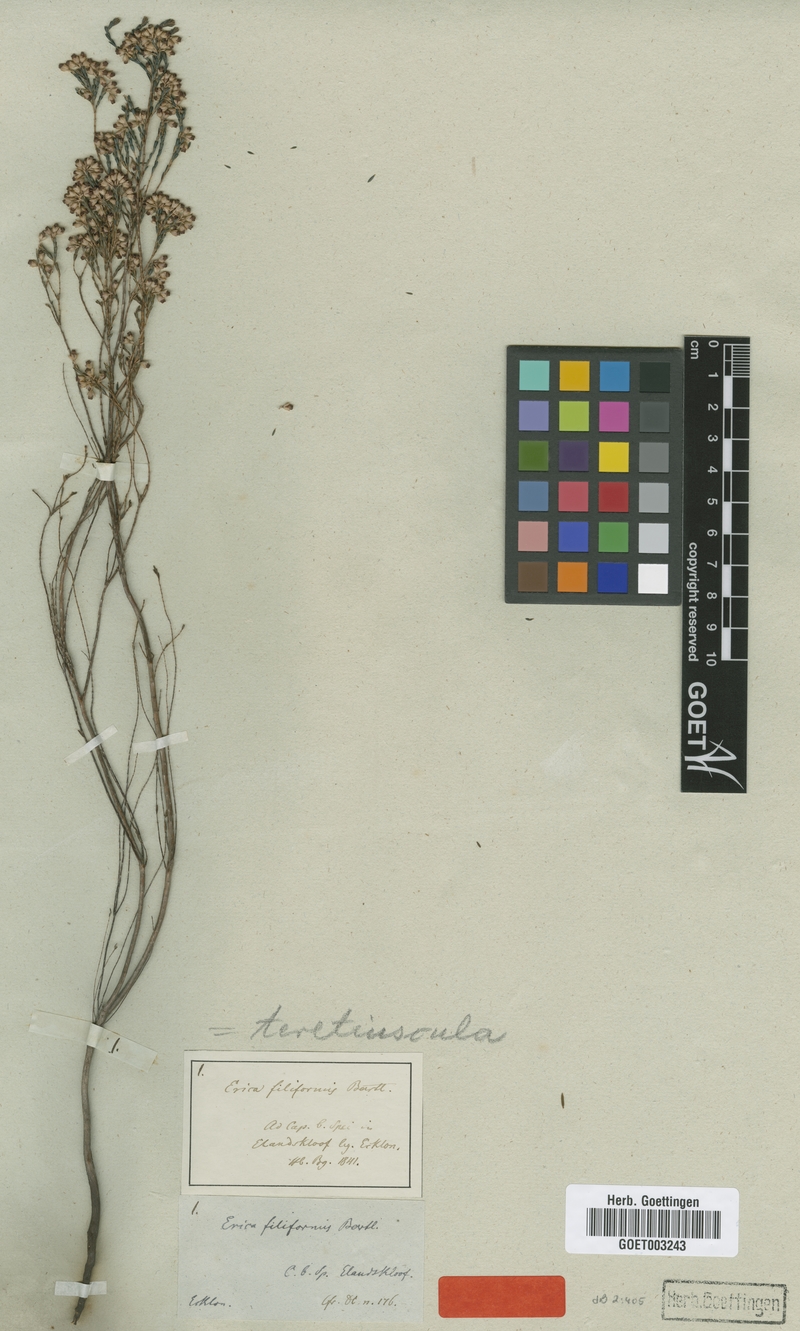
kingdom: Plantae
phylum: Tracheophyta
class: Magnoliopsida
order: Ericales
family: Ericaceae
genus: Erica
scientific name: Erica articularis
